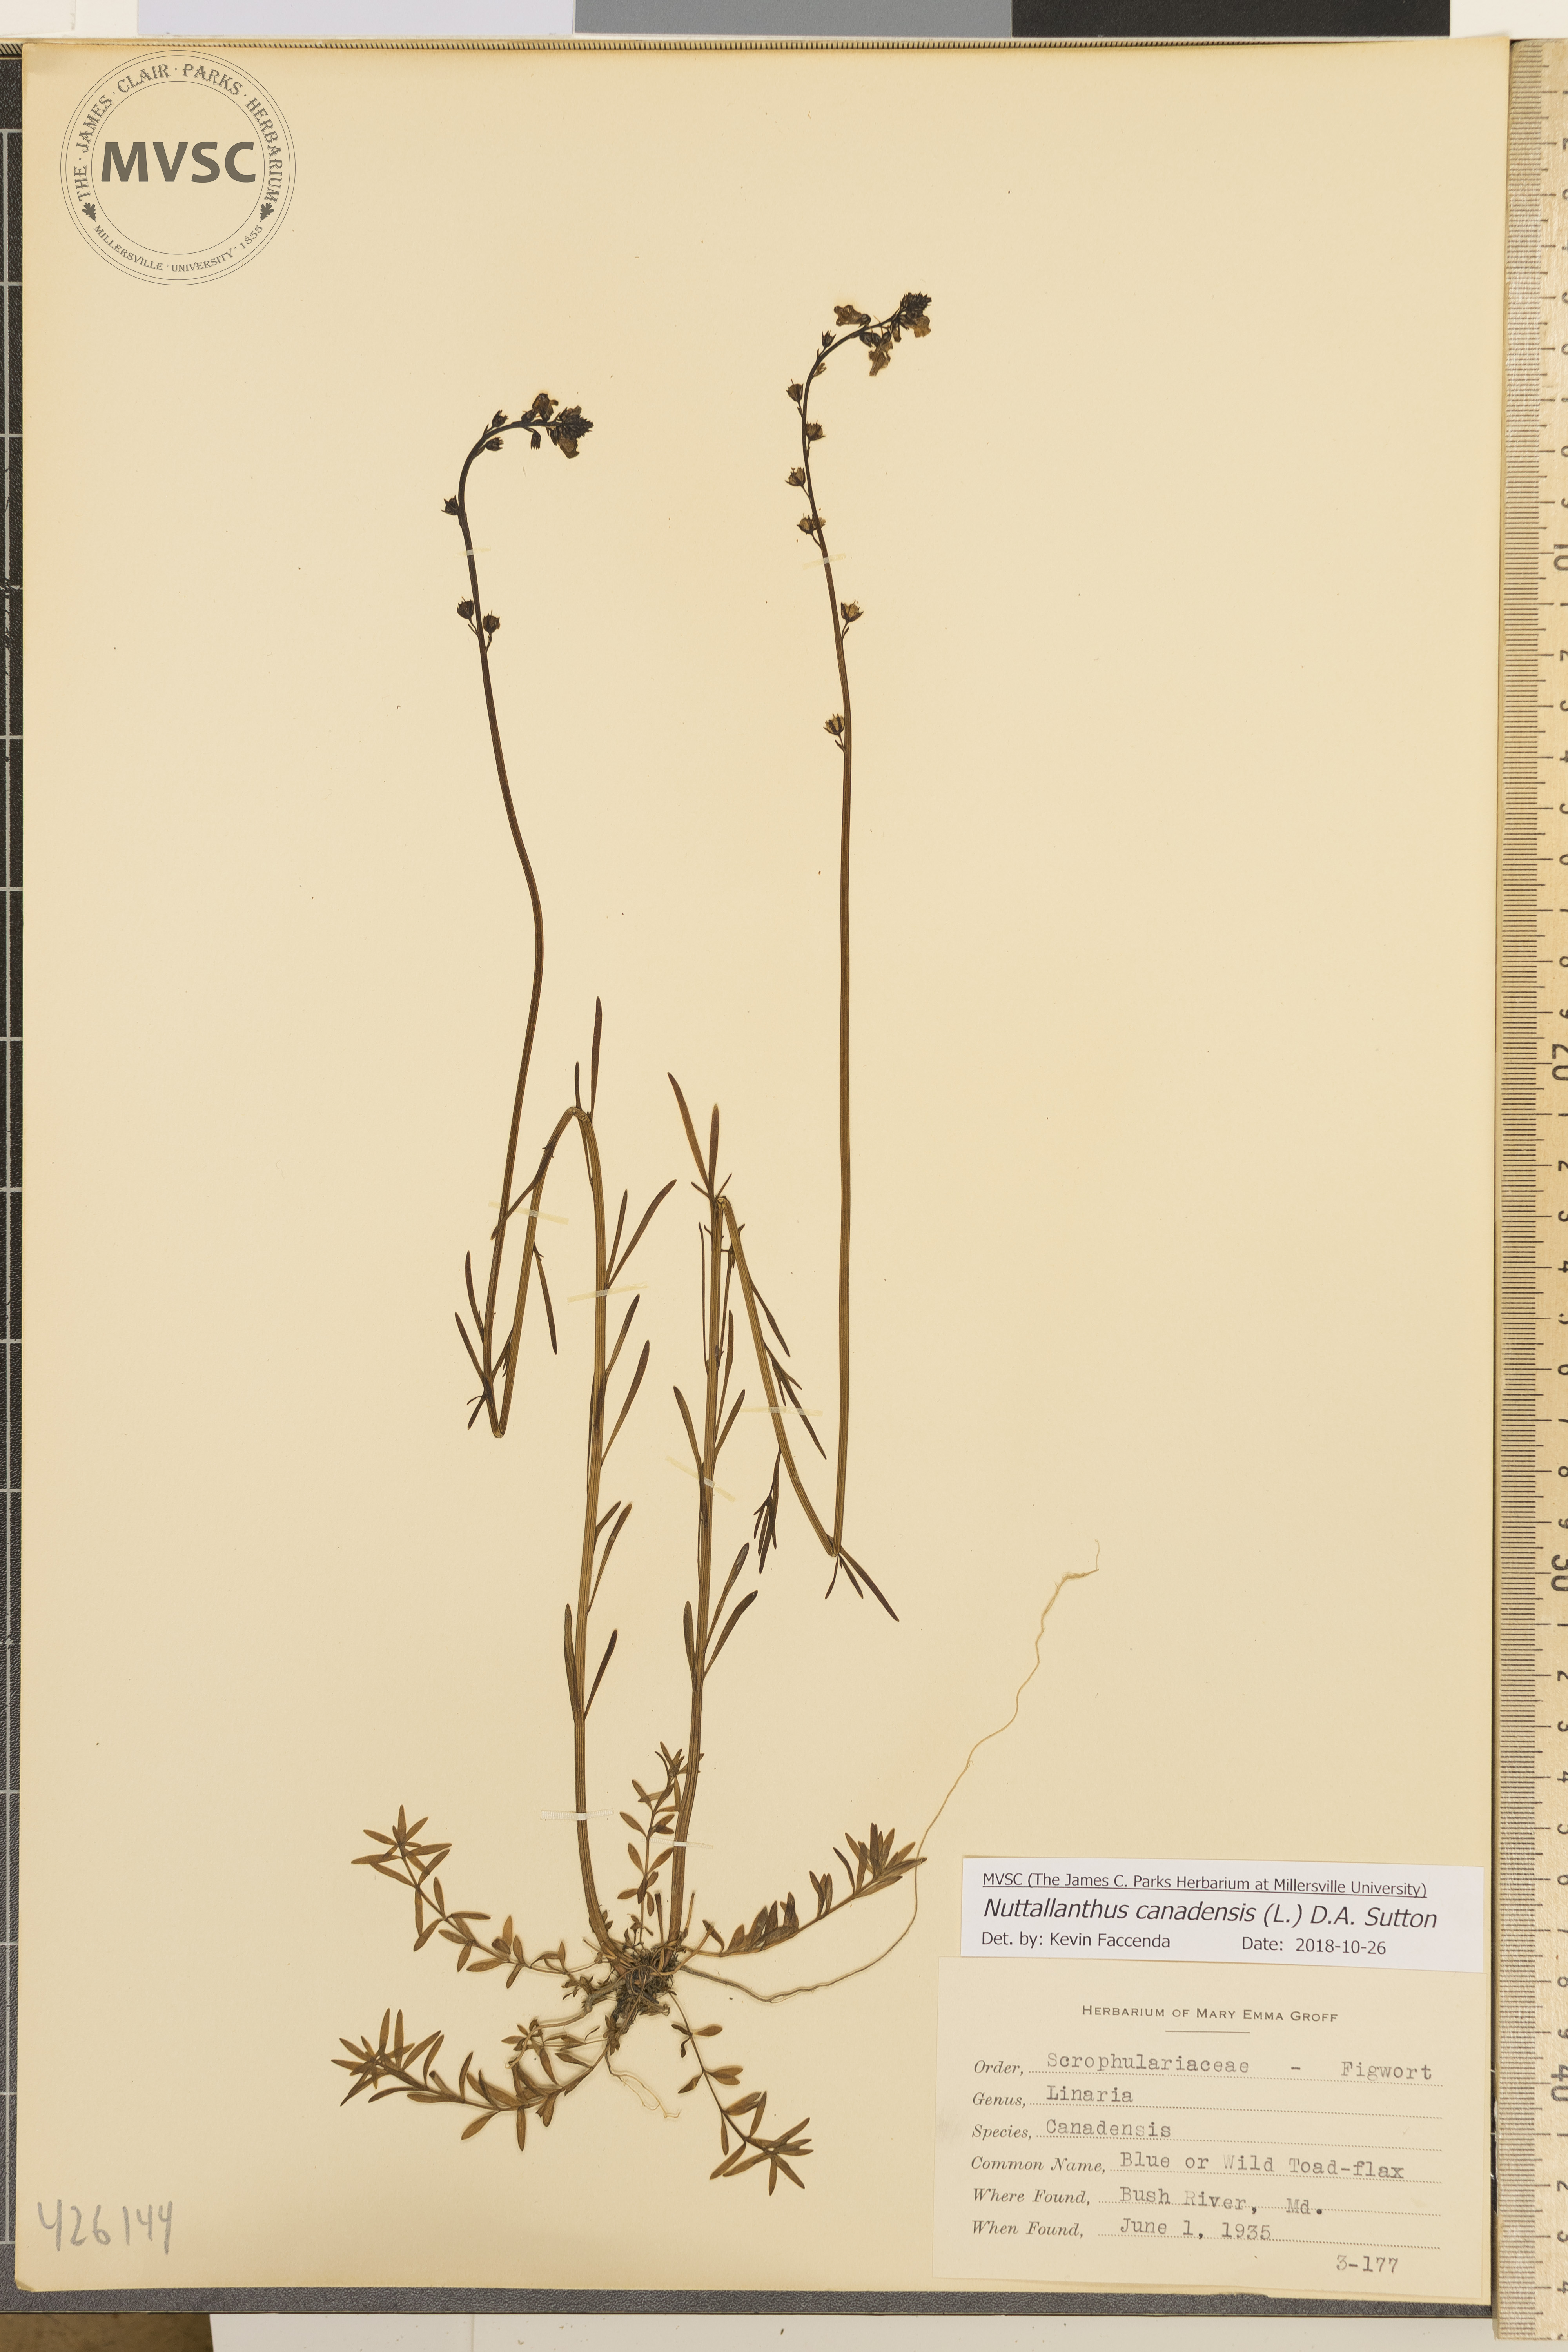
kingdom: Plantae
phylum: Tracheophyta
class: Magnoliopsida
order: Lamiales
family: Plantaginaceae
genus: Nuttallanthus
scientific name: Nuttallanthus canadensis
